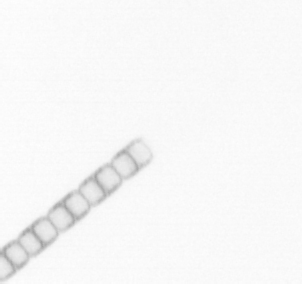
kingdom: Chromista
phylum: Ochrophyta
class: Bacillariophyceae
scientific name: Bacillariophyceae
